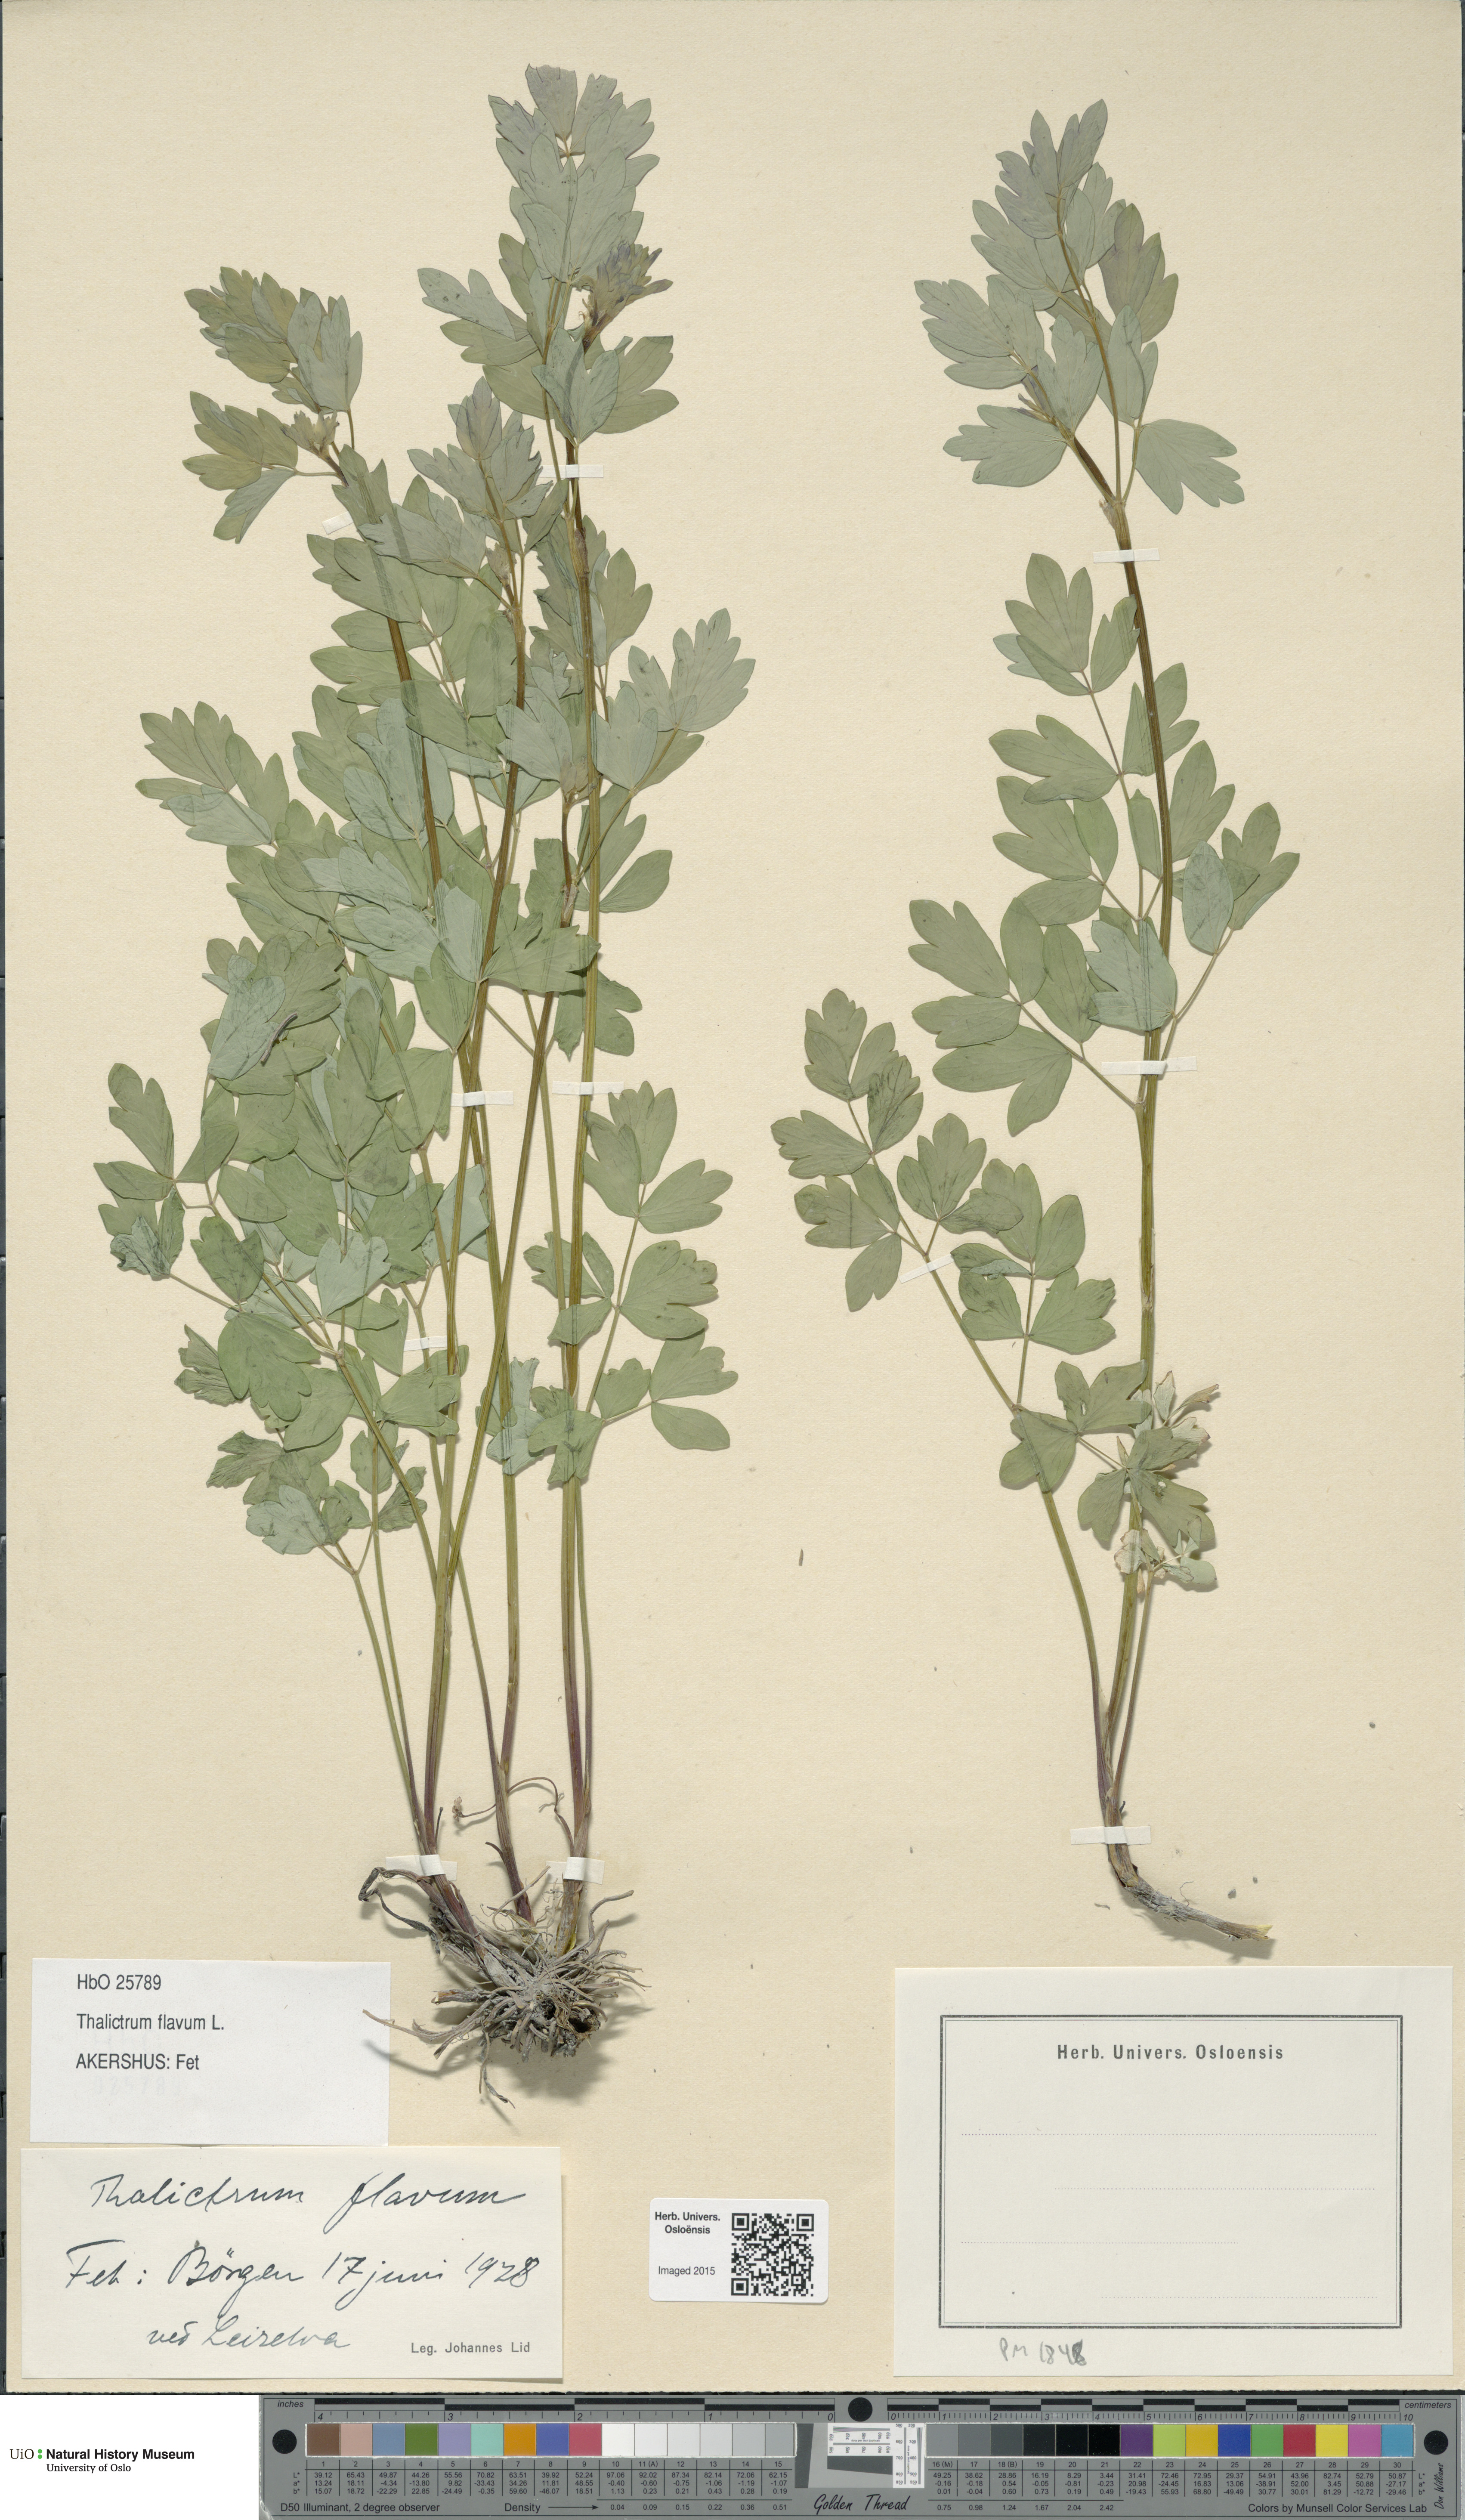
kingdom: Plantae
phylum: Tracheophyta
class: Magnoliopsida
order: Ranunculales
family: Ranunculaceae
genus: Thalictrum
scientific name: Thalictrum flavum
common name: Common meadow-rue
